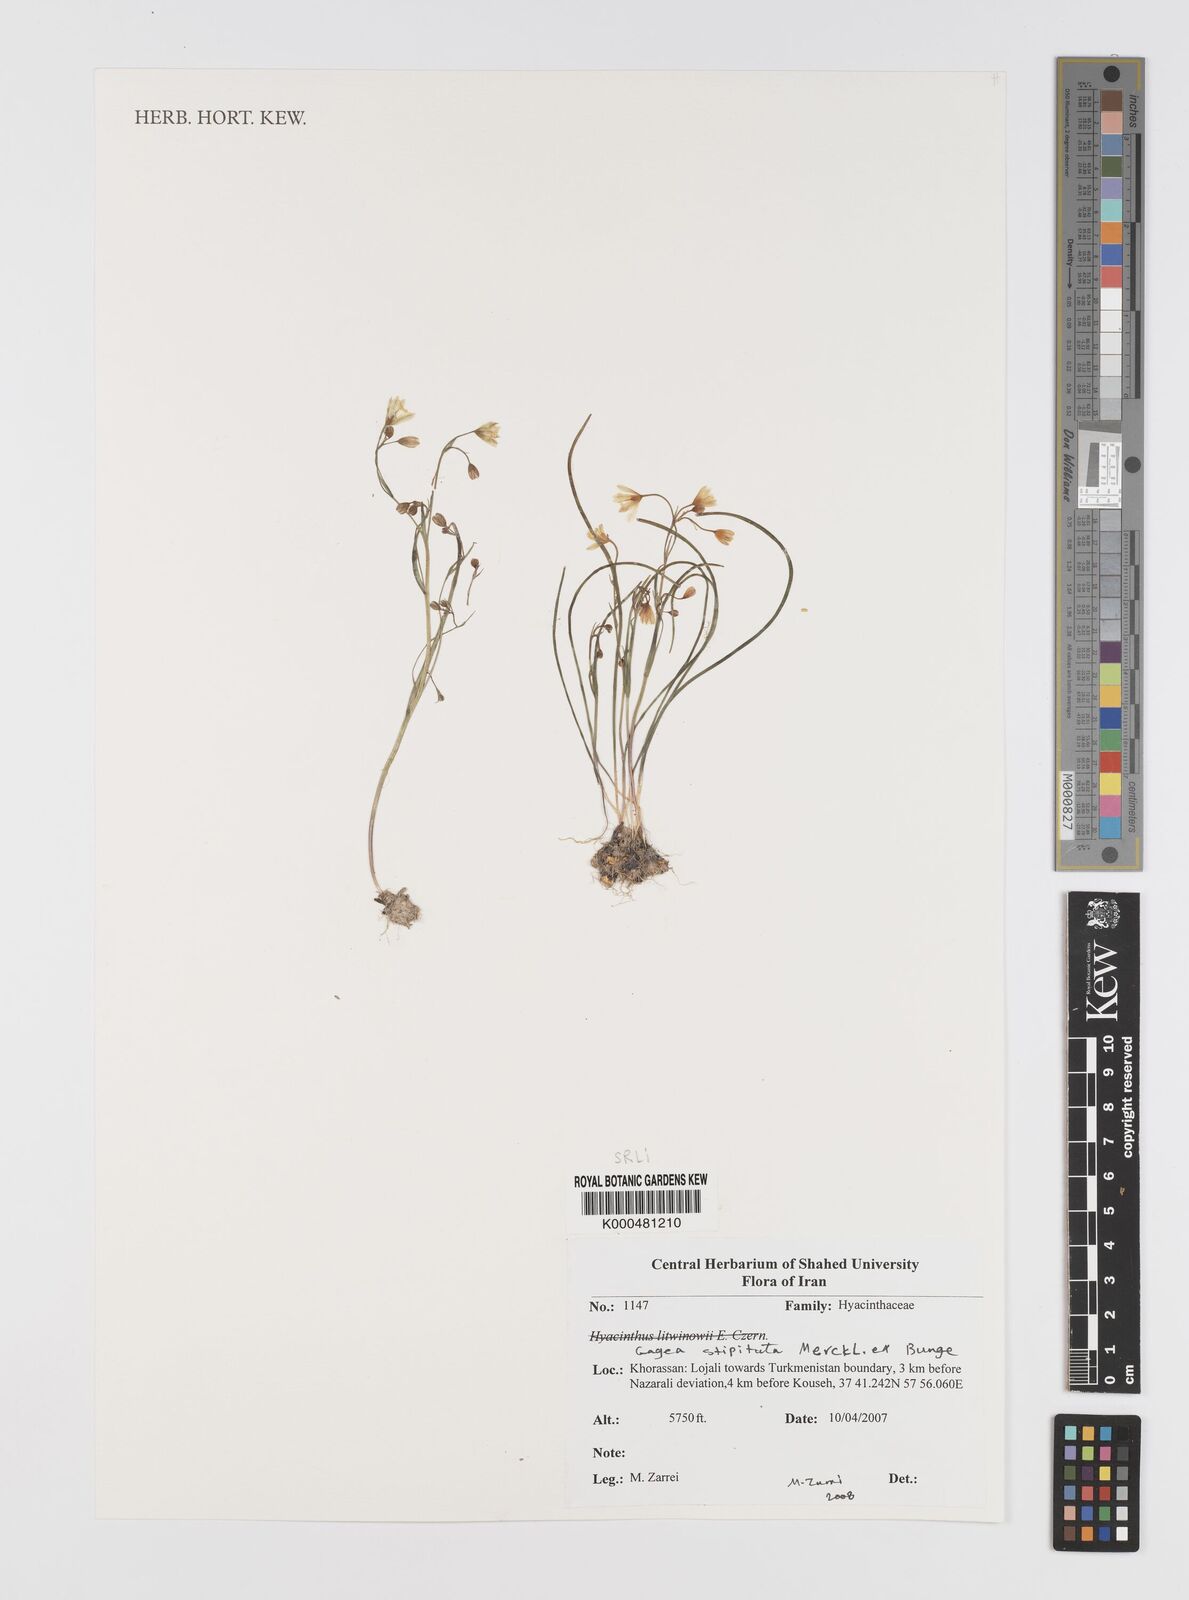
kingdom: Plantae
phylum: Tracheophyta
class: Liliopsida
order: Liliales
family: Liliaceae
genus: Gagea
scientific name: Gagea kunawurensis
